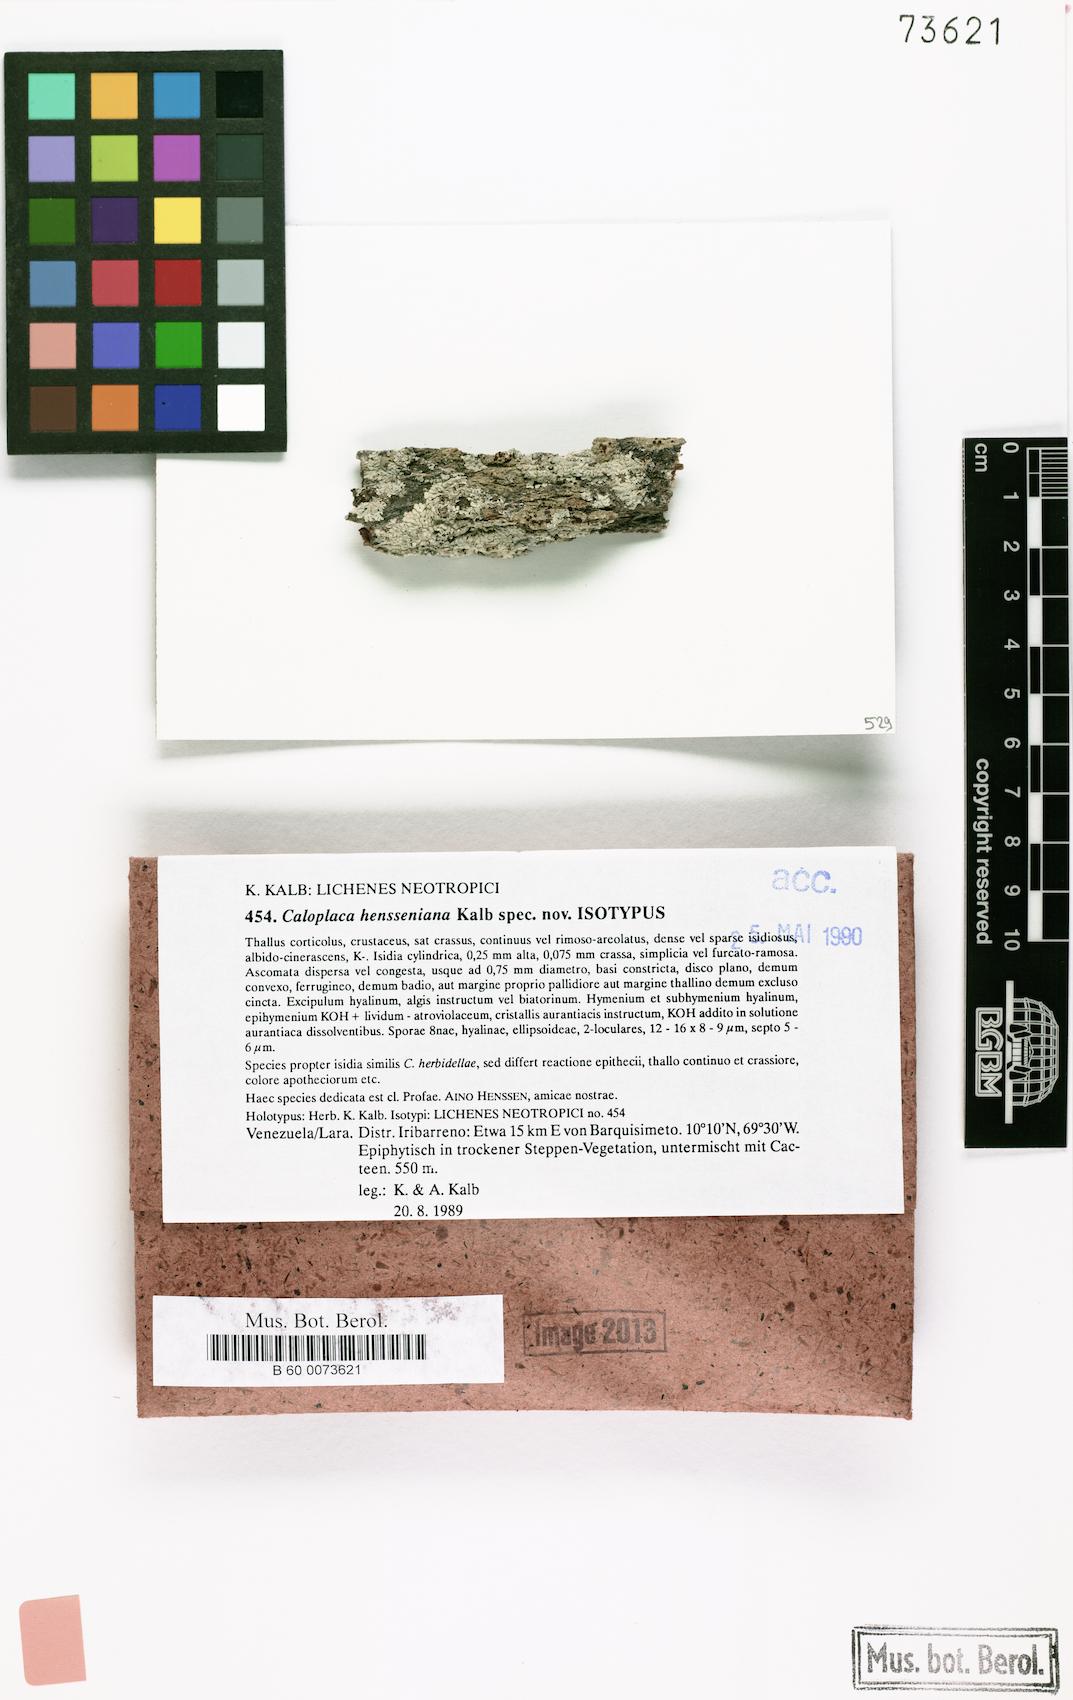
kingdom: Fungi
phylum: Ascomycota
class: Lecanoromycetes
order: Teloschistales
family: Teloschistaceae
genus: Caloplaca
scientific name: Caloplaca hensseniana
